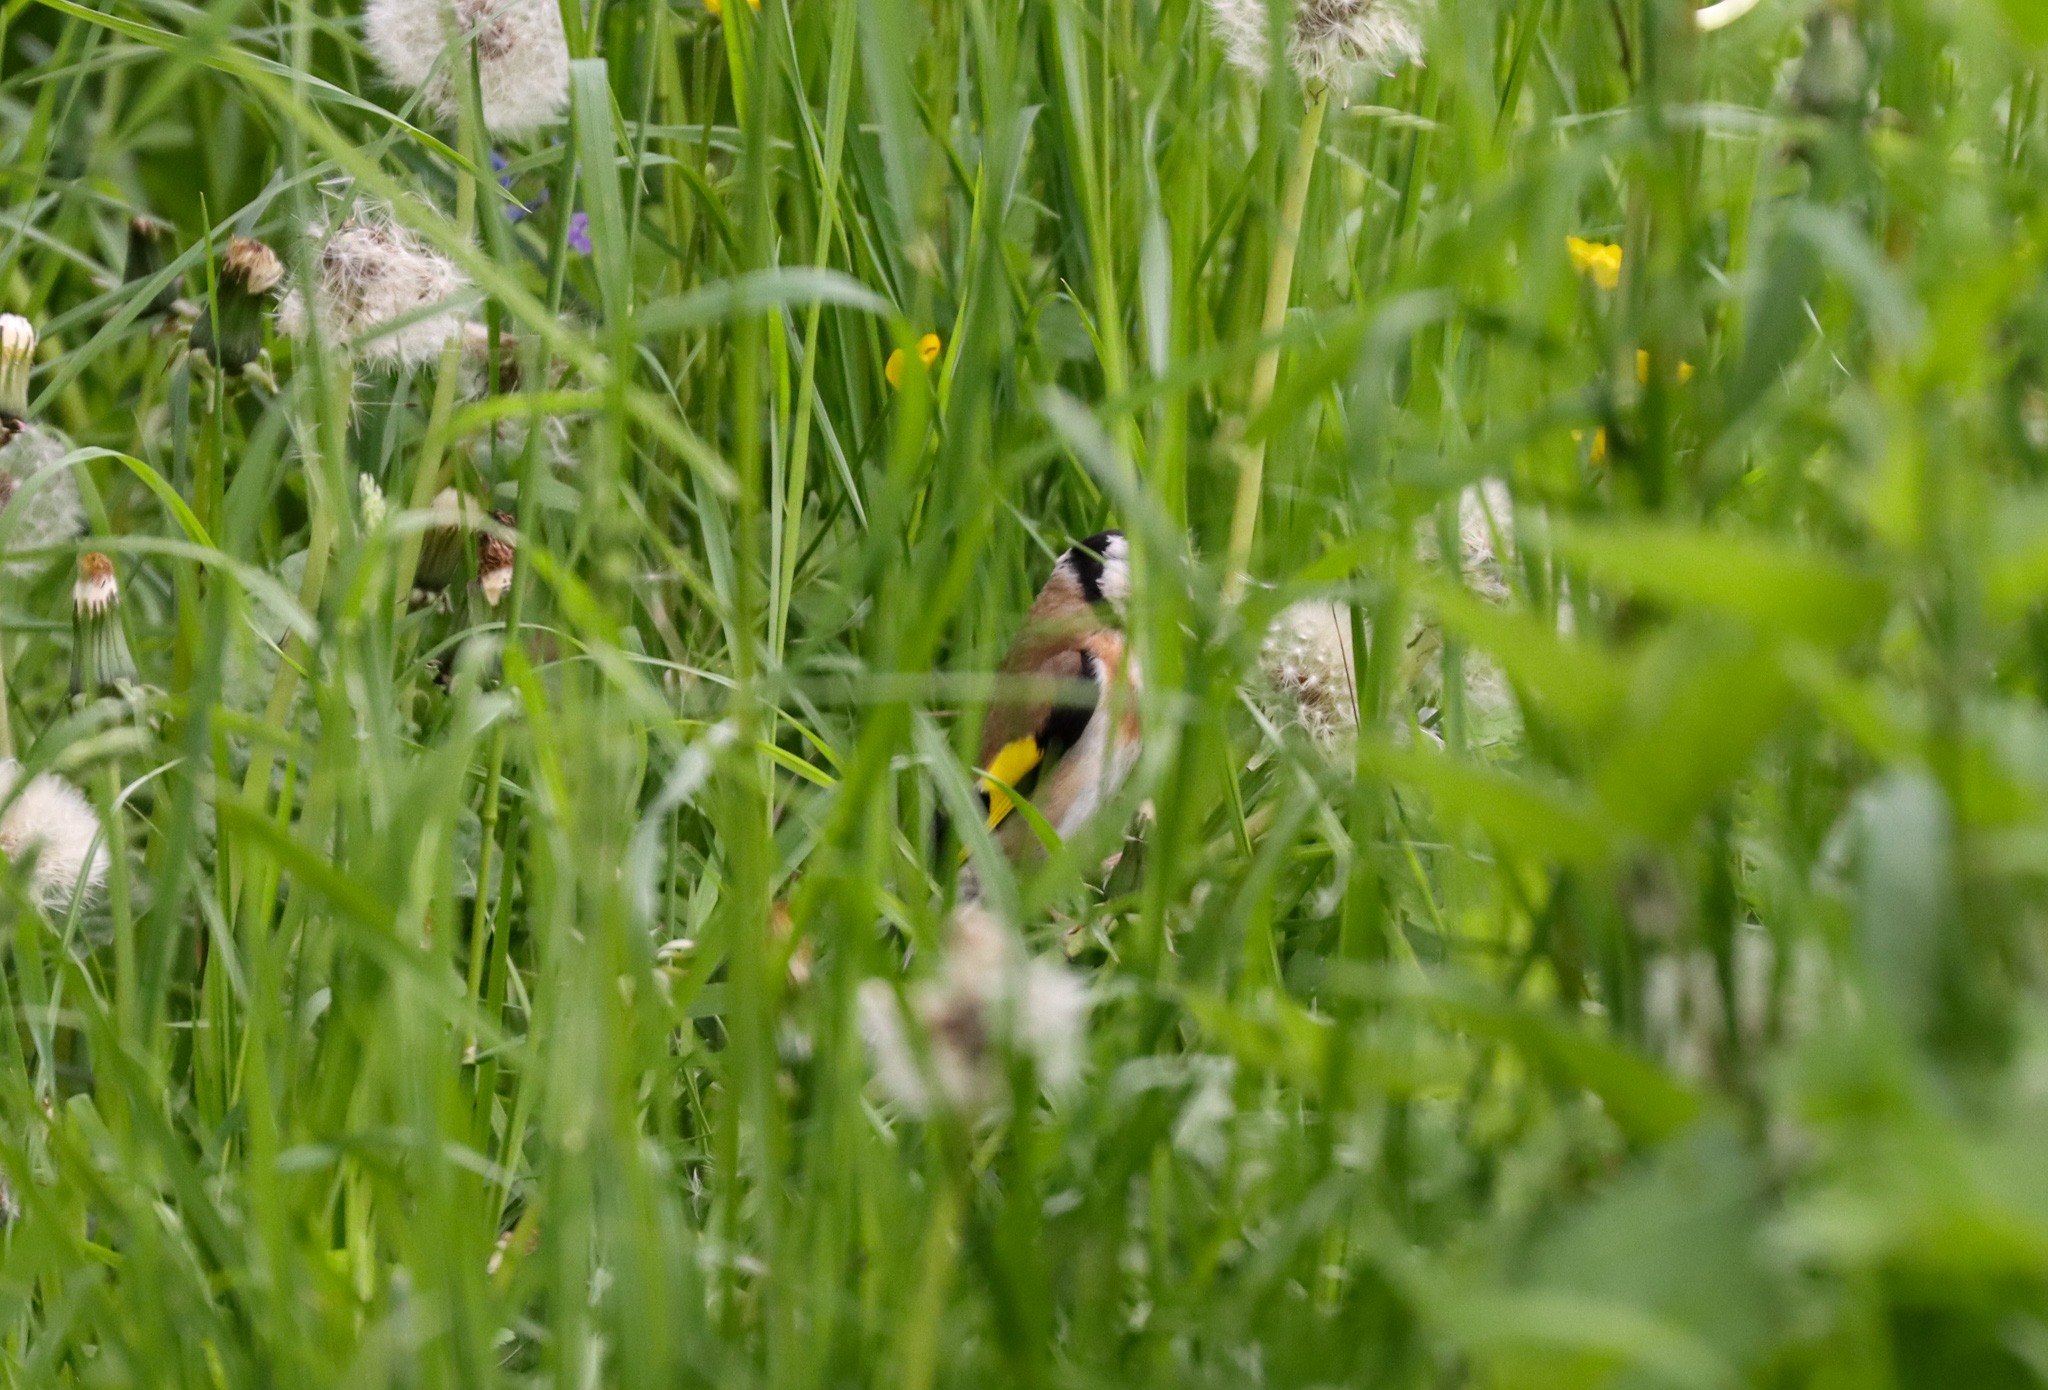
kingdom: Animalia
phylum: Chordata
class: Aves
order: Passeriformes
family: Fringillidae
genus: Carduelis
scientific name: Carduelis carduelis
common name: Stillits
